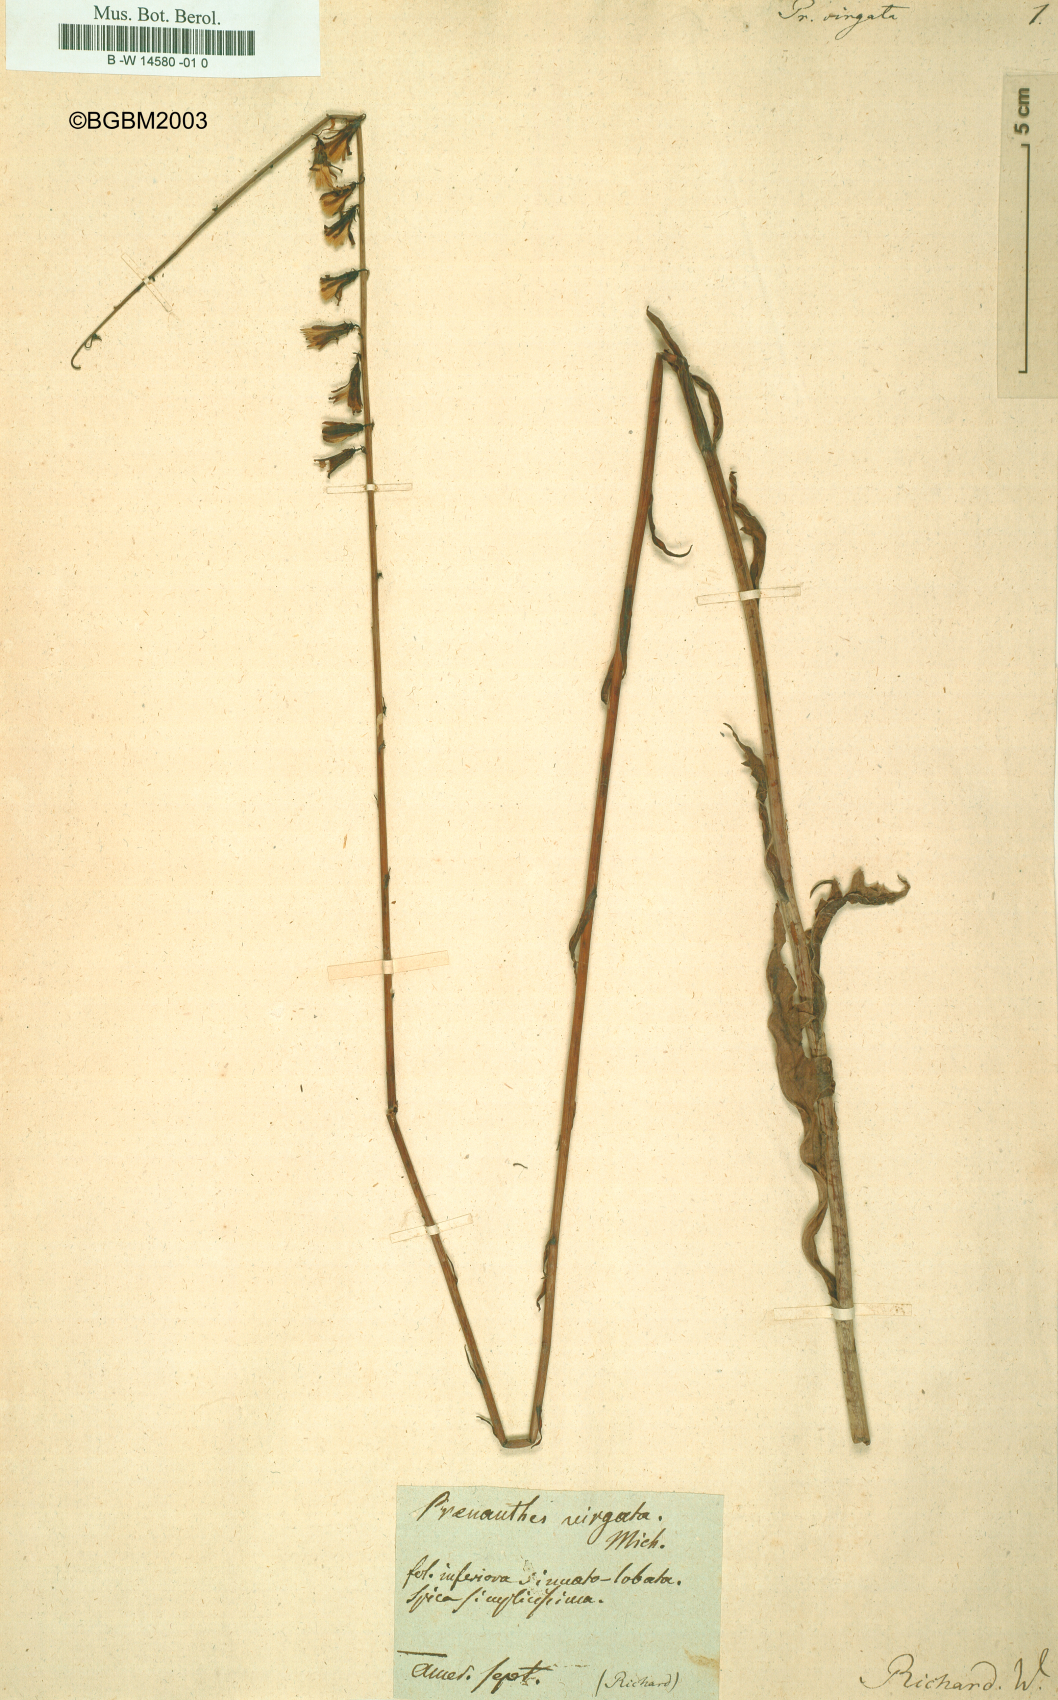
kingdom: Plantae
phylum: Tracheophyta
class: Magnoliopsida
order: Asterales
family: Asteraceae
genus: Nabalus
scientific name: Nabalus autumnalis
